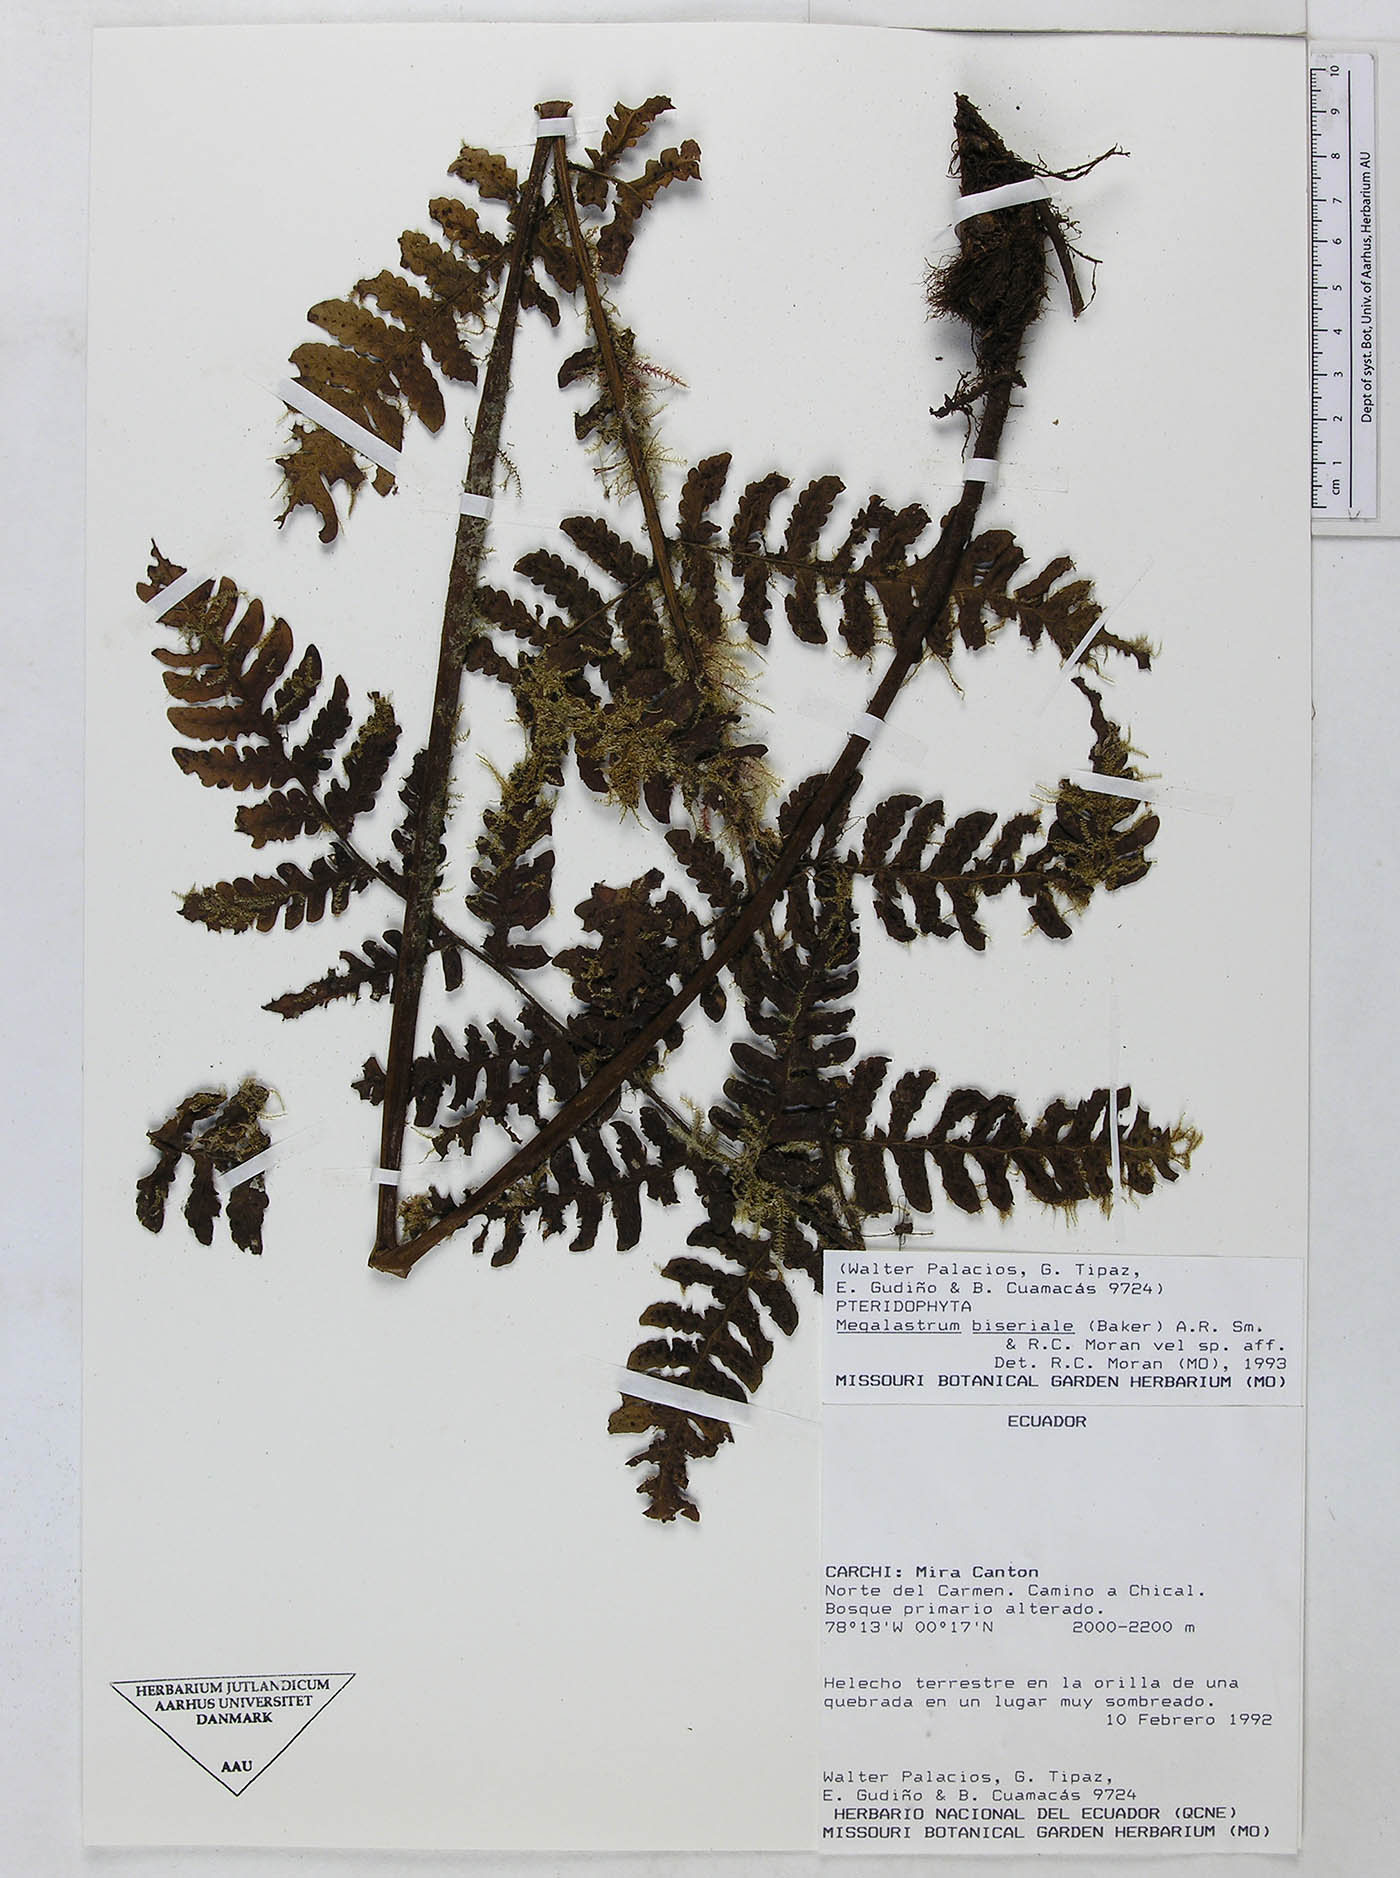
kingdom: Plantae
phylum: Tracheophyta
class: Polypodiopsida
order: Polypodiales
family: Dryopteridaceae
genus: Megalastrum
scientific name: Megalastrum biseriale
